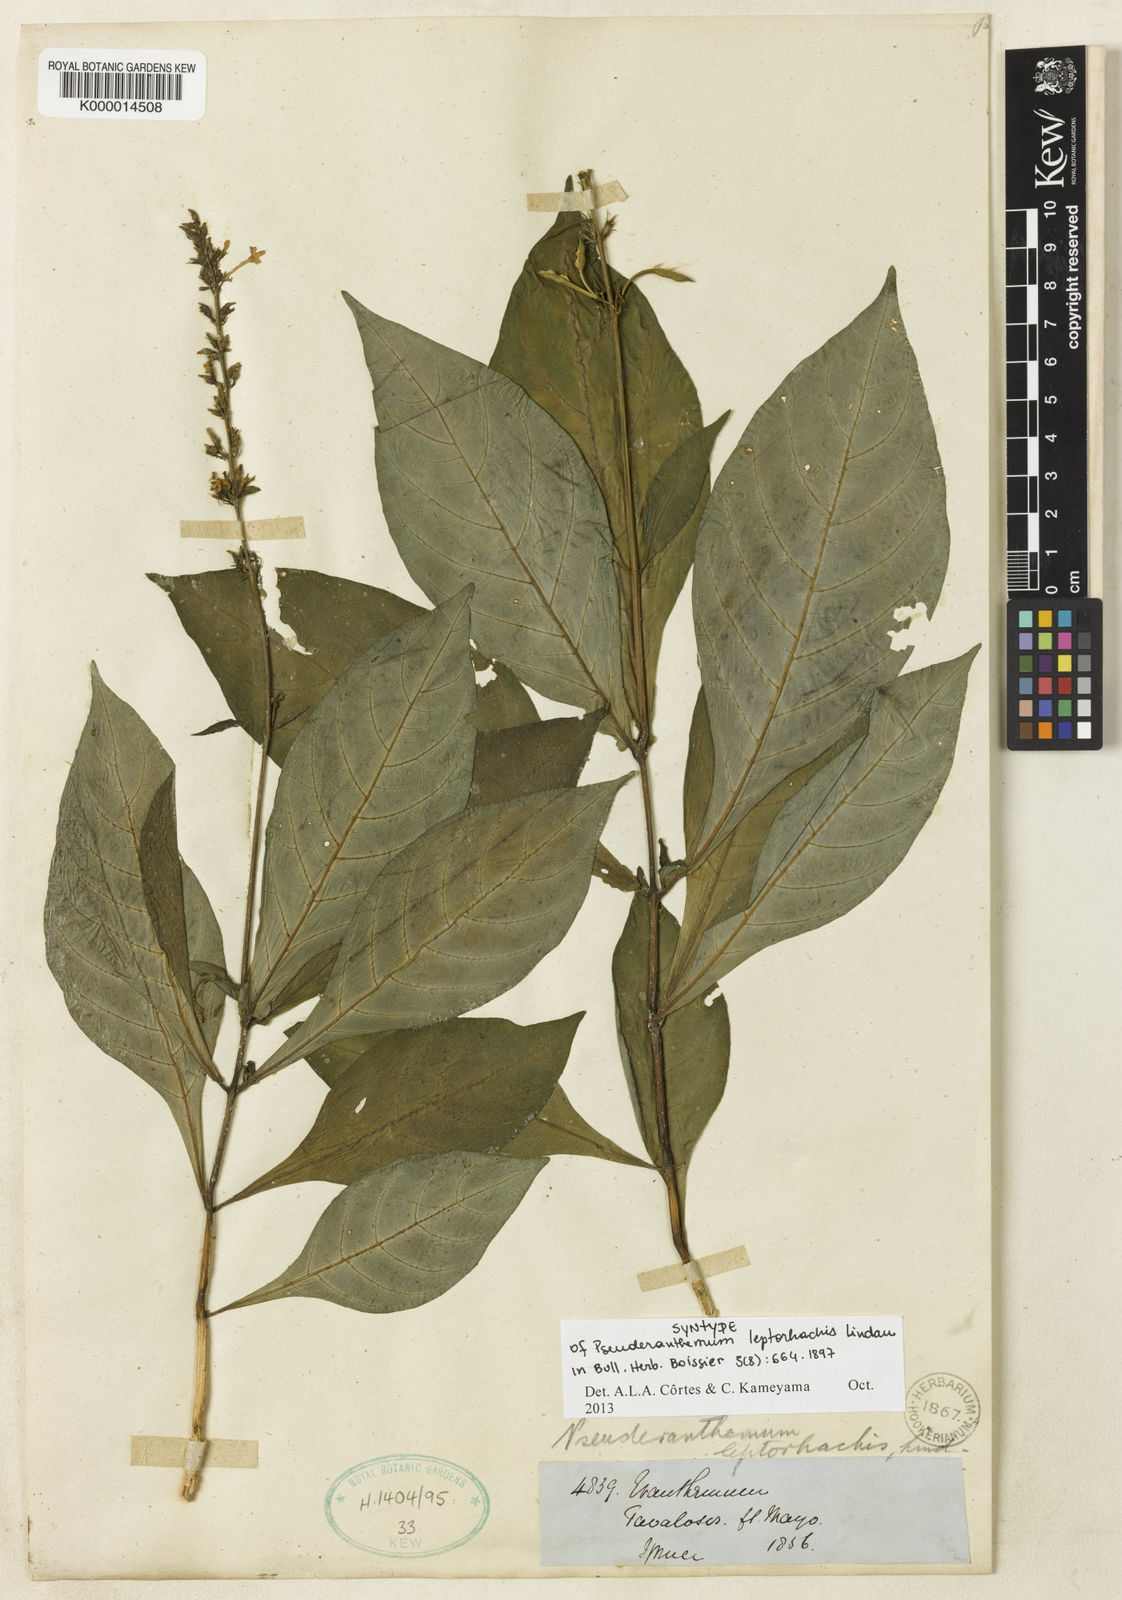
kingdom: Plantae
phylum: Tracheophyta
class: Magnoliopsida
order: Lamiales
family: Acanthaceae
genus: Pseuderanthemum
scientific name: Pseuderanthemum leptorhachis
